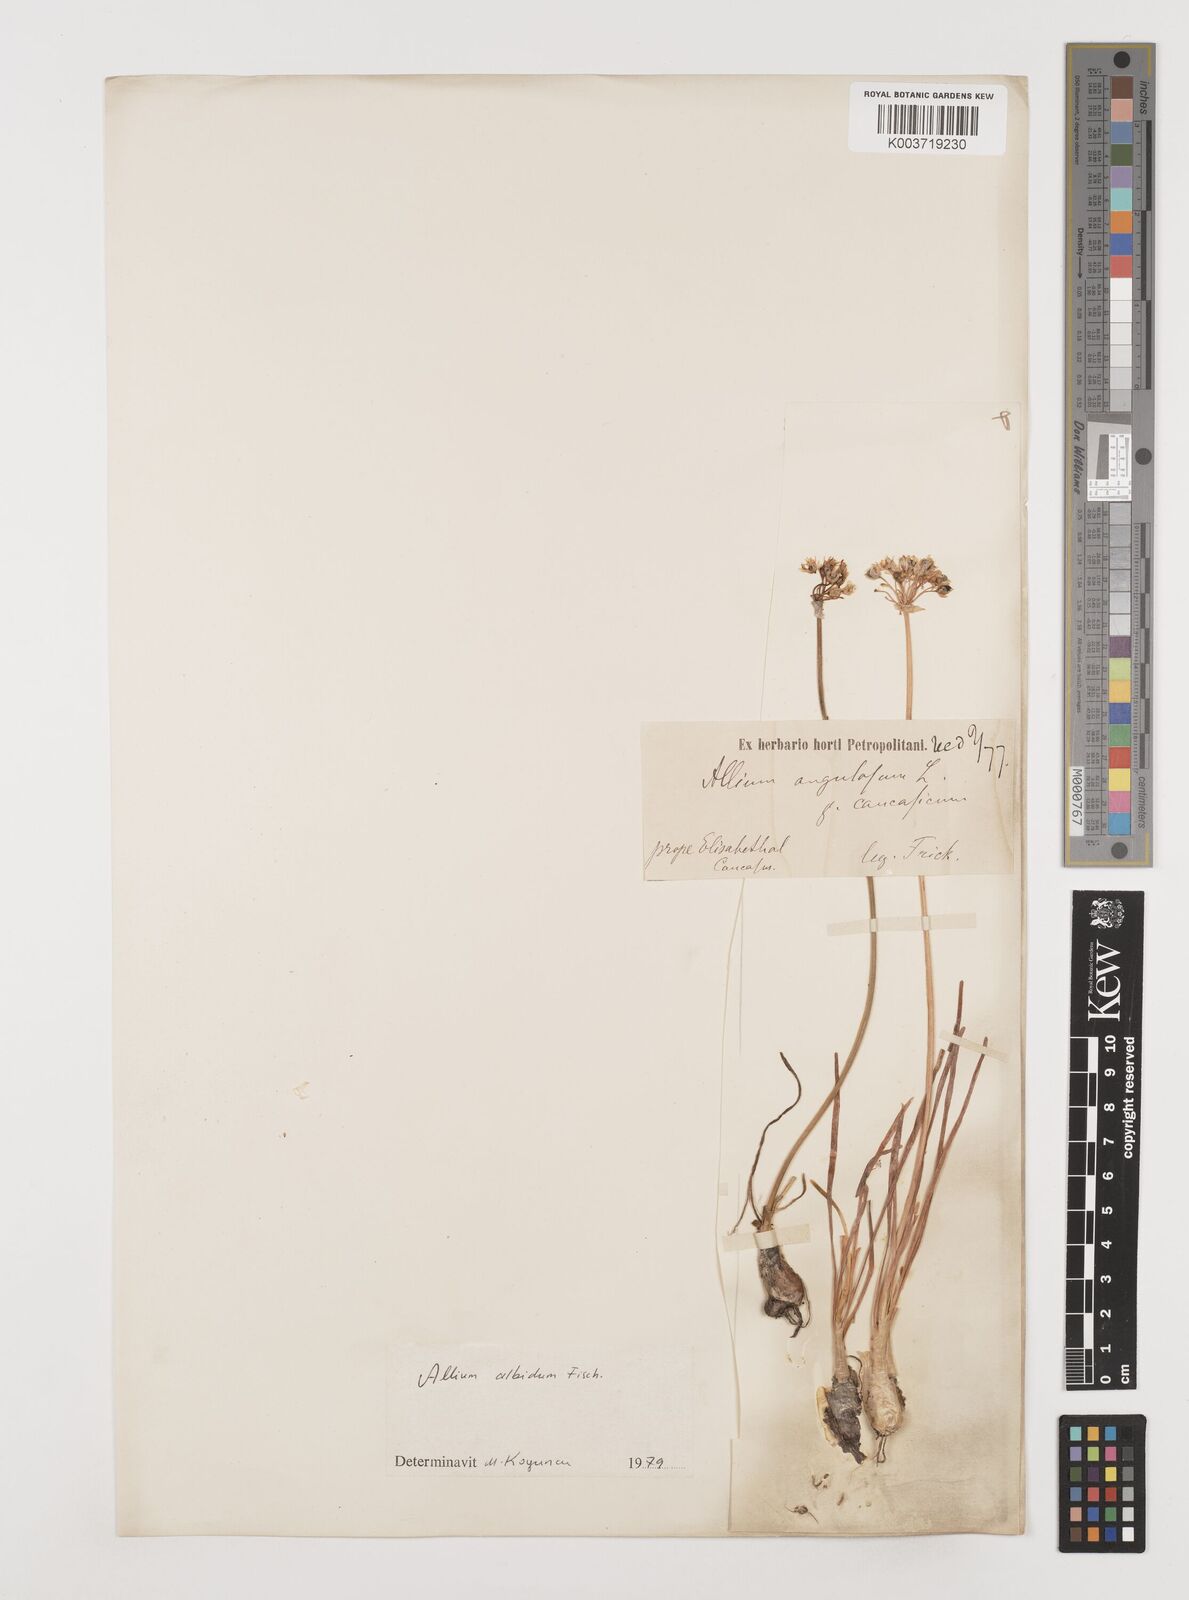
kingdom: Plantae
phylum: Tracheophyta
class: Liliopsida
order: Asparagales
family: Amaryllidaceae
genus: Allium
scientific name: Allium denudatum
